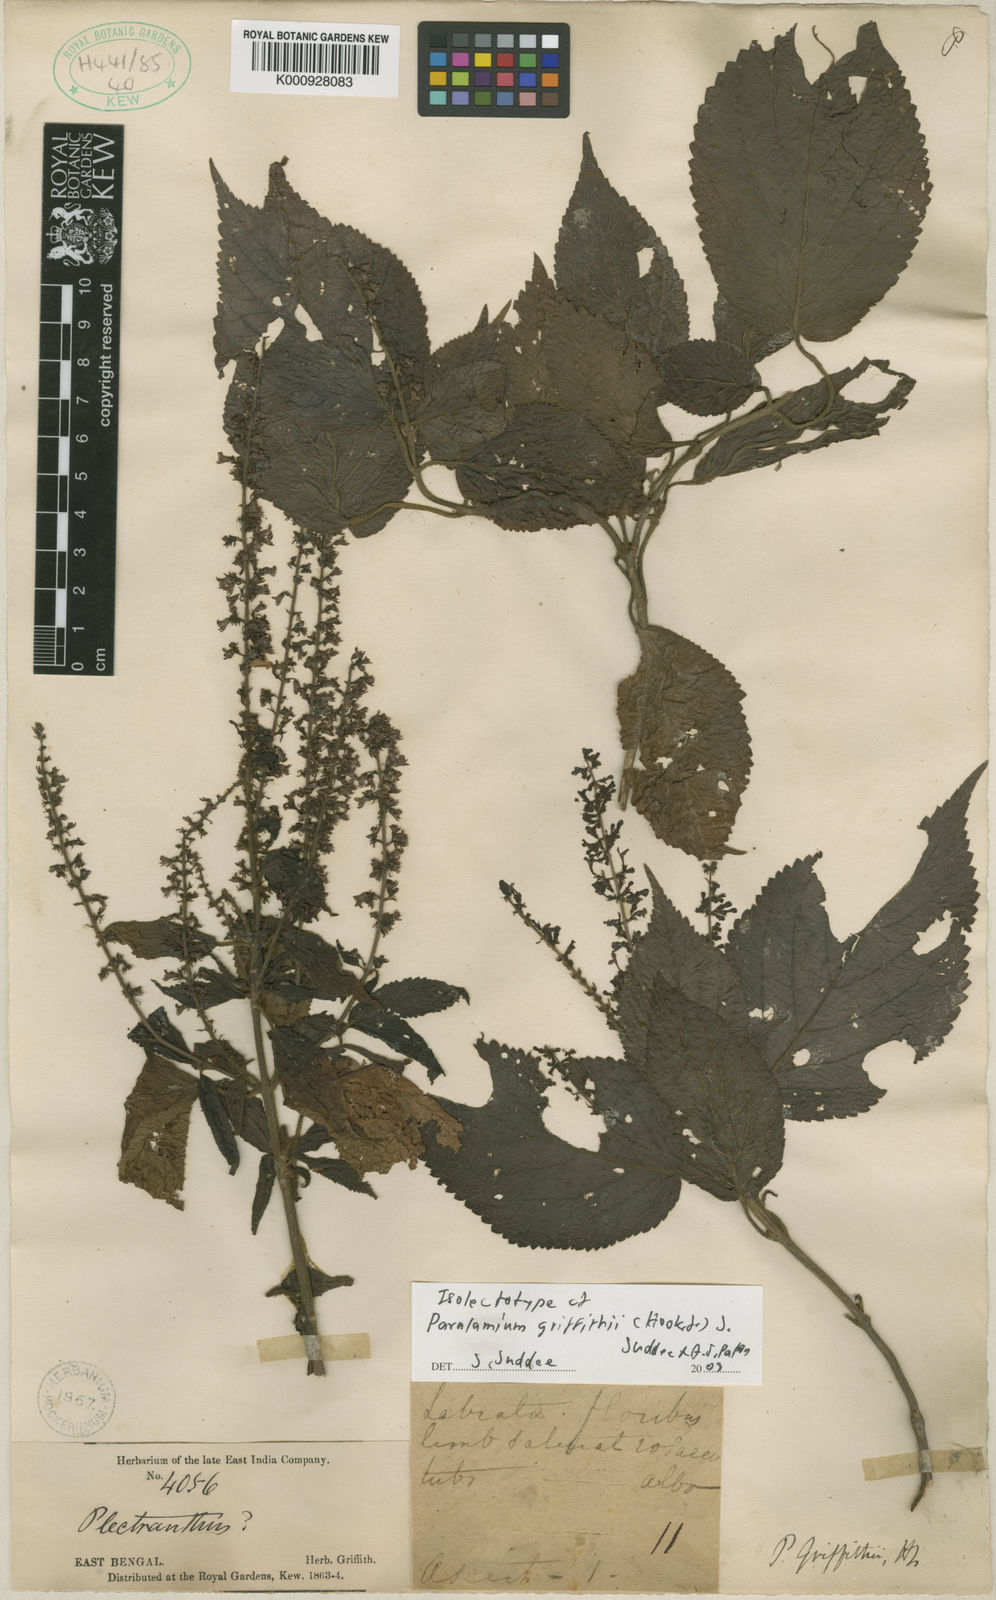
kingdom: Plantae
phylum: Tracheophyta
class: Magnoliopsida
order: Lamiales
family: Lamiaceae
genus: Paralamium
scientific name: Paralamium griffithii
